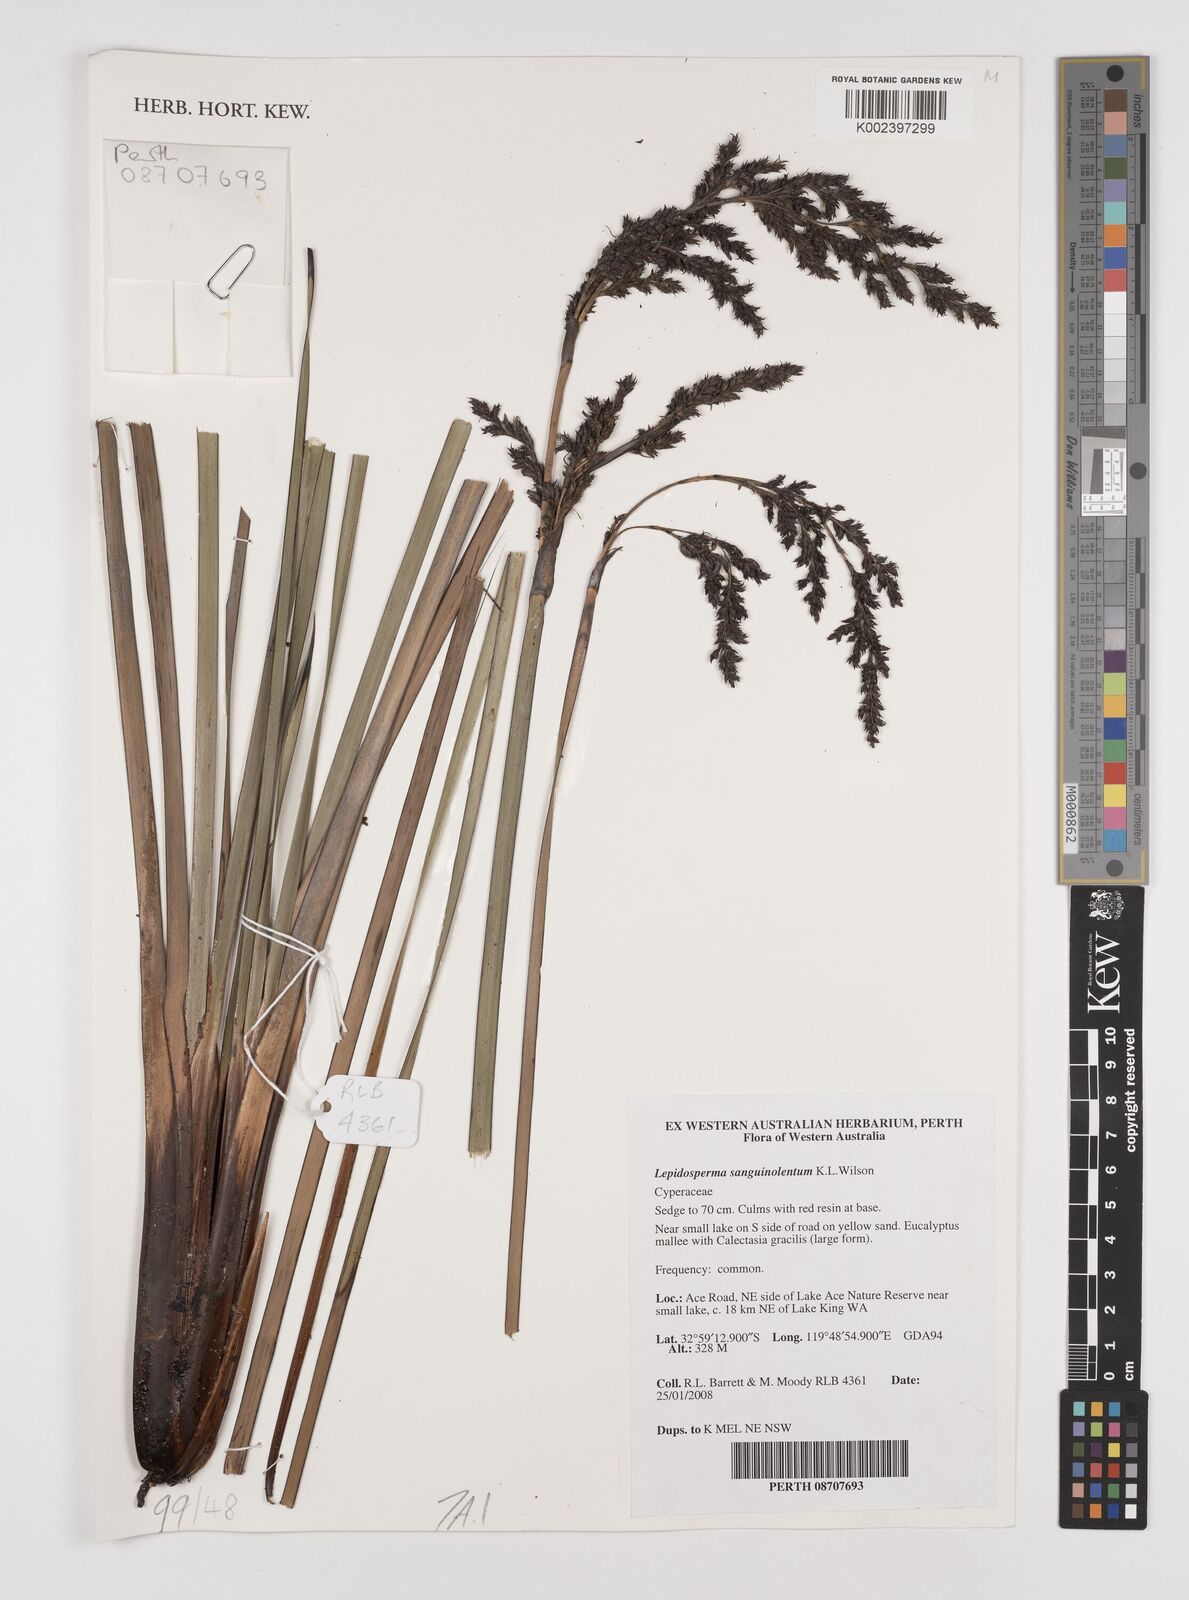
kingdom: Plantae
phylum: Tracheophyta
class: Liliopsida
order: Poales
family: Cyperaceae
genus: Lepidosperma
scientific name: Lepidosperma sanguinolentum
